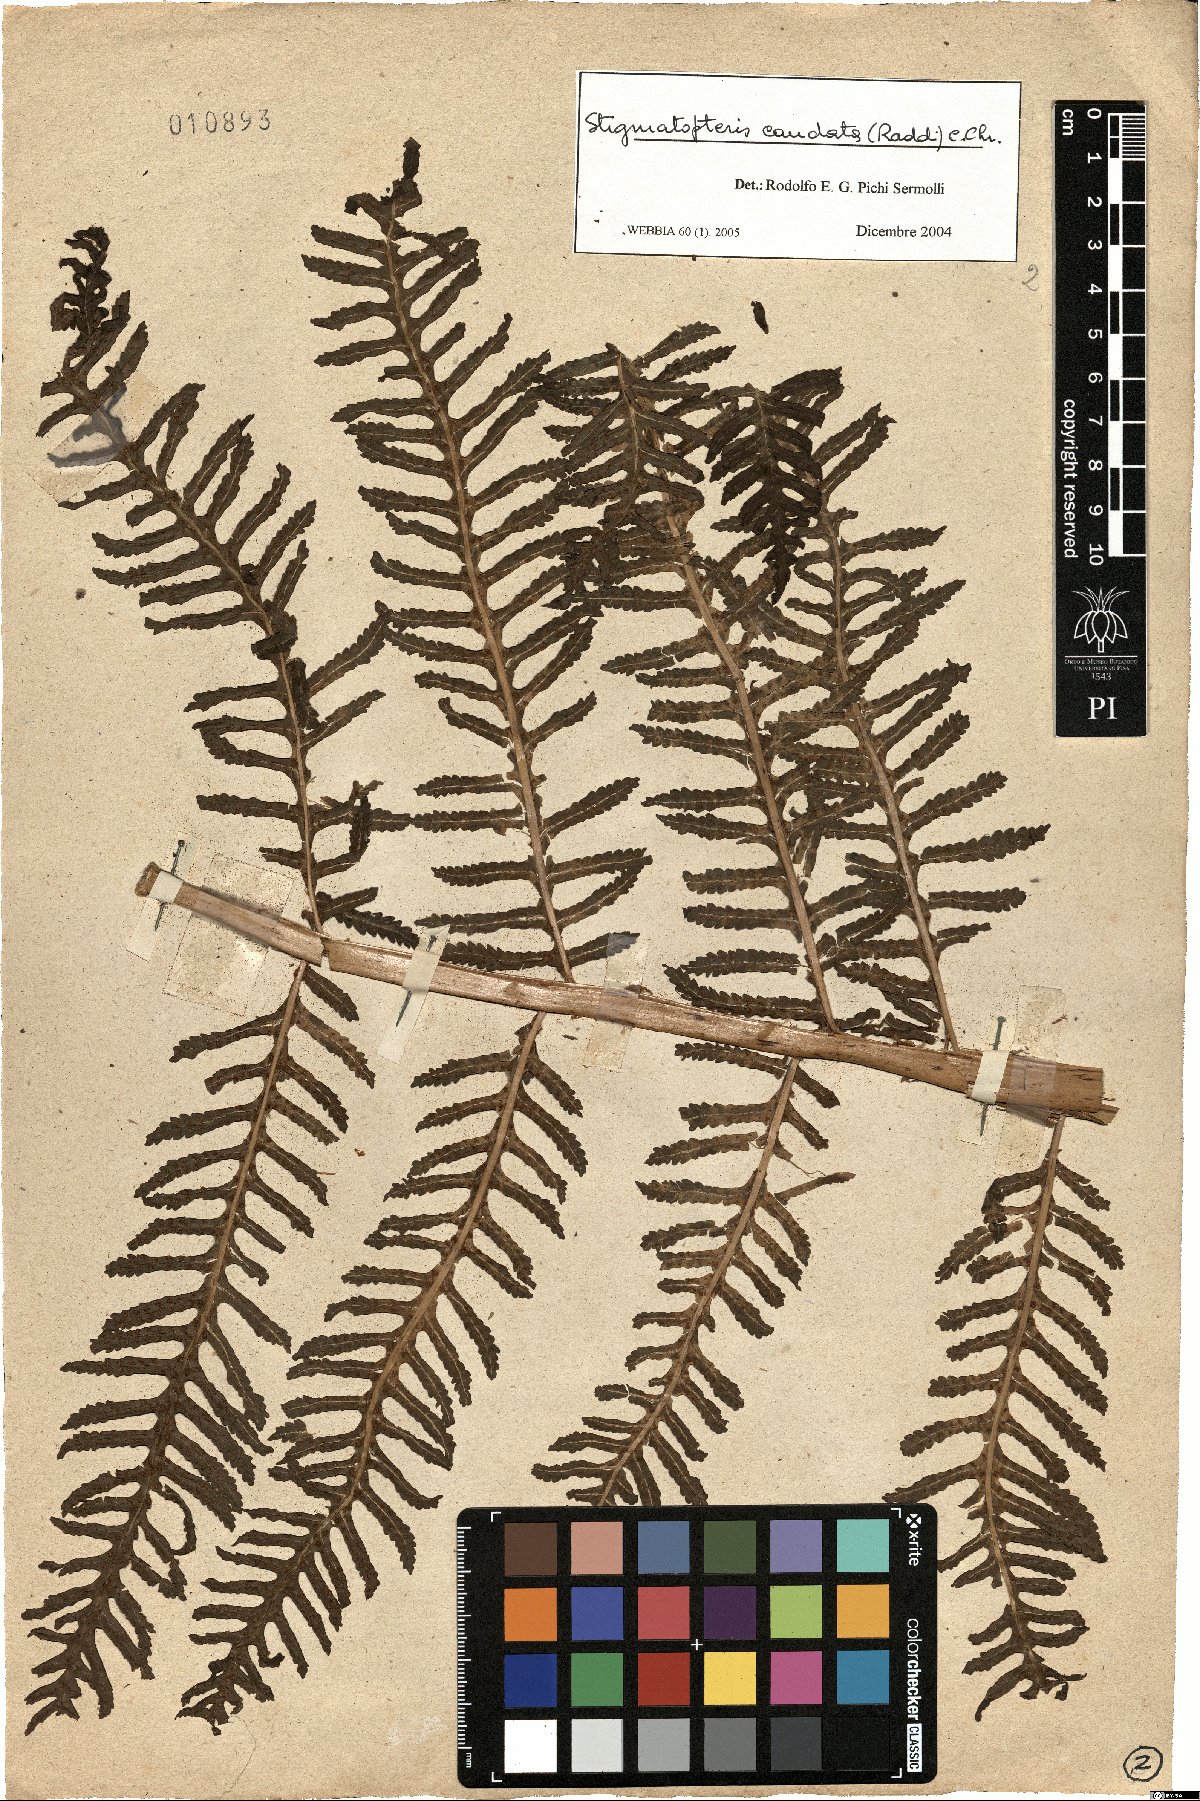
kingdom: Plantae
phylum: Tracheophyta
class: Polypodiopsida
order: Polypodiales
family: Dryopteridaceae
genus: Stigmatopteris
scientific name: Stigmatopteris caudata
